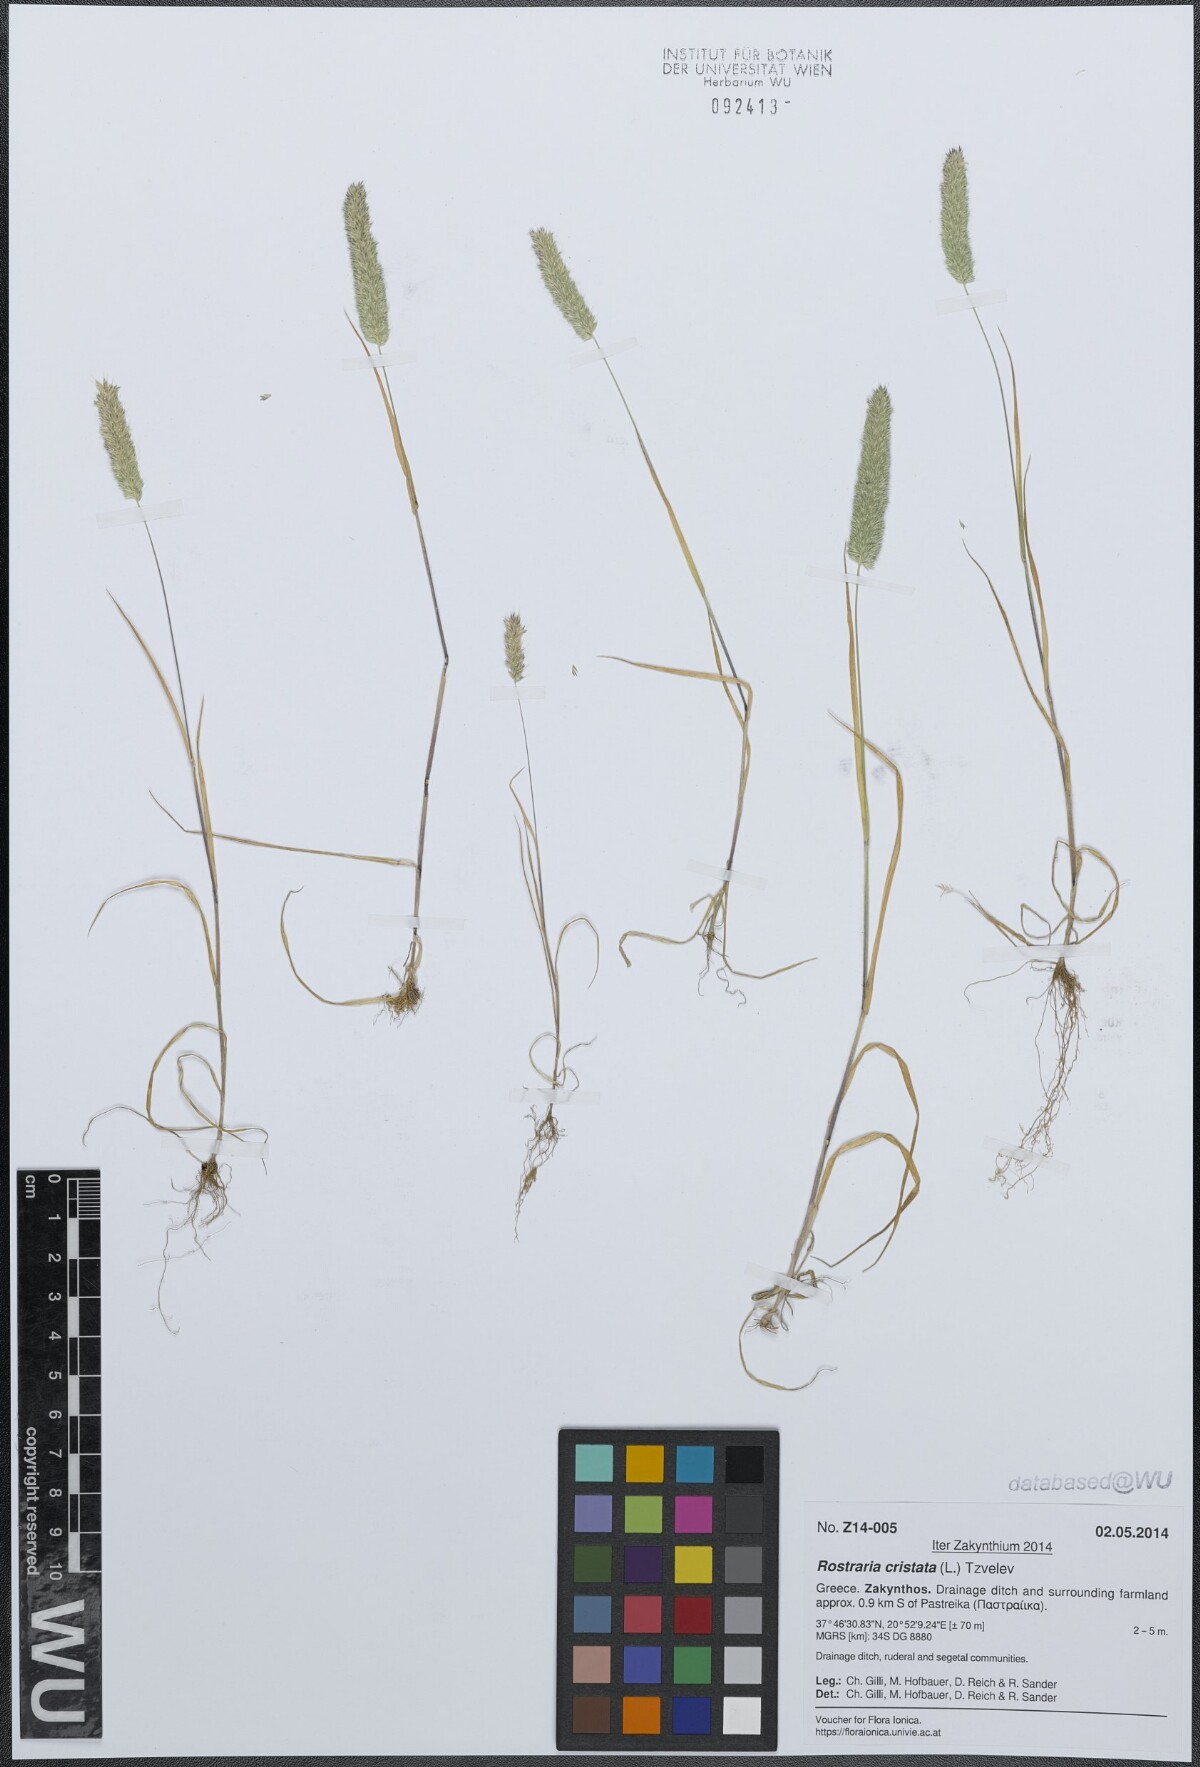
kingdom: Plantae
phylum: Tracheophyta
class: Liliopsida
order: Poales
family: Poaceae
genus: Rostraria
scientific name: Rostraria cristata
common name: Mediterranean hair-grass
